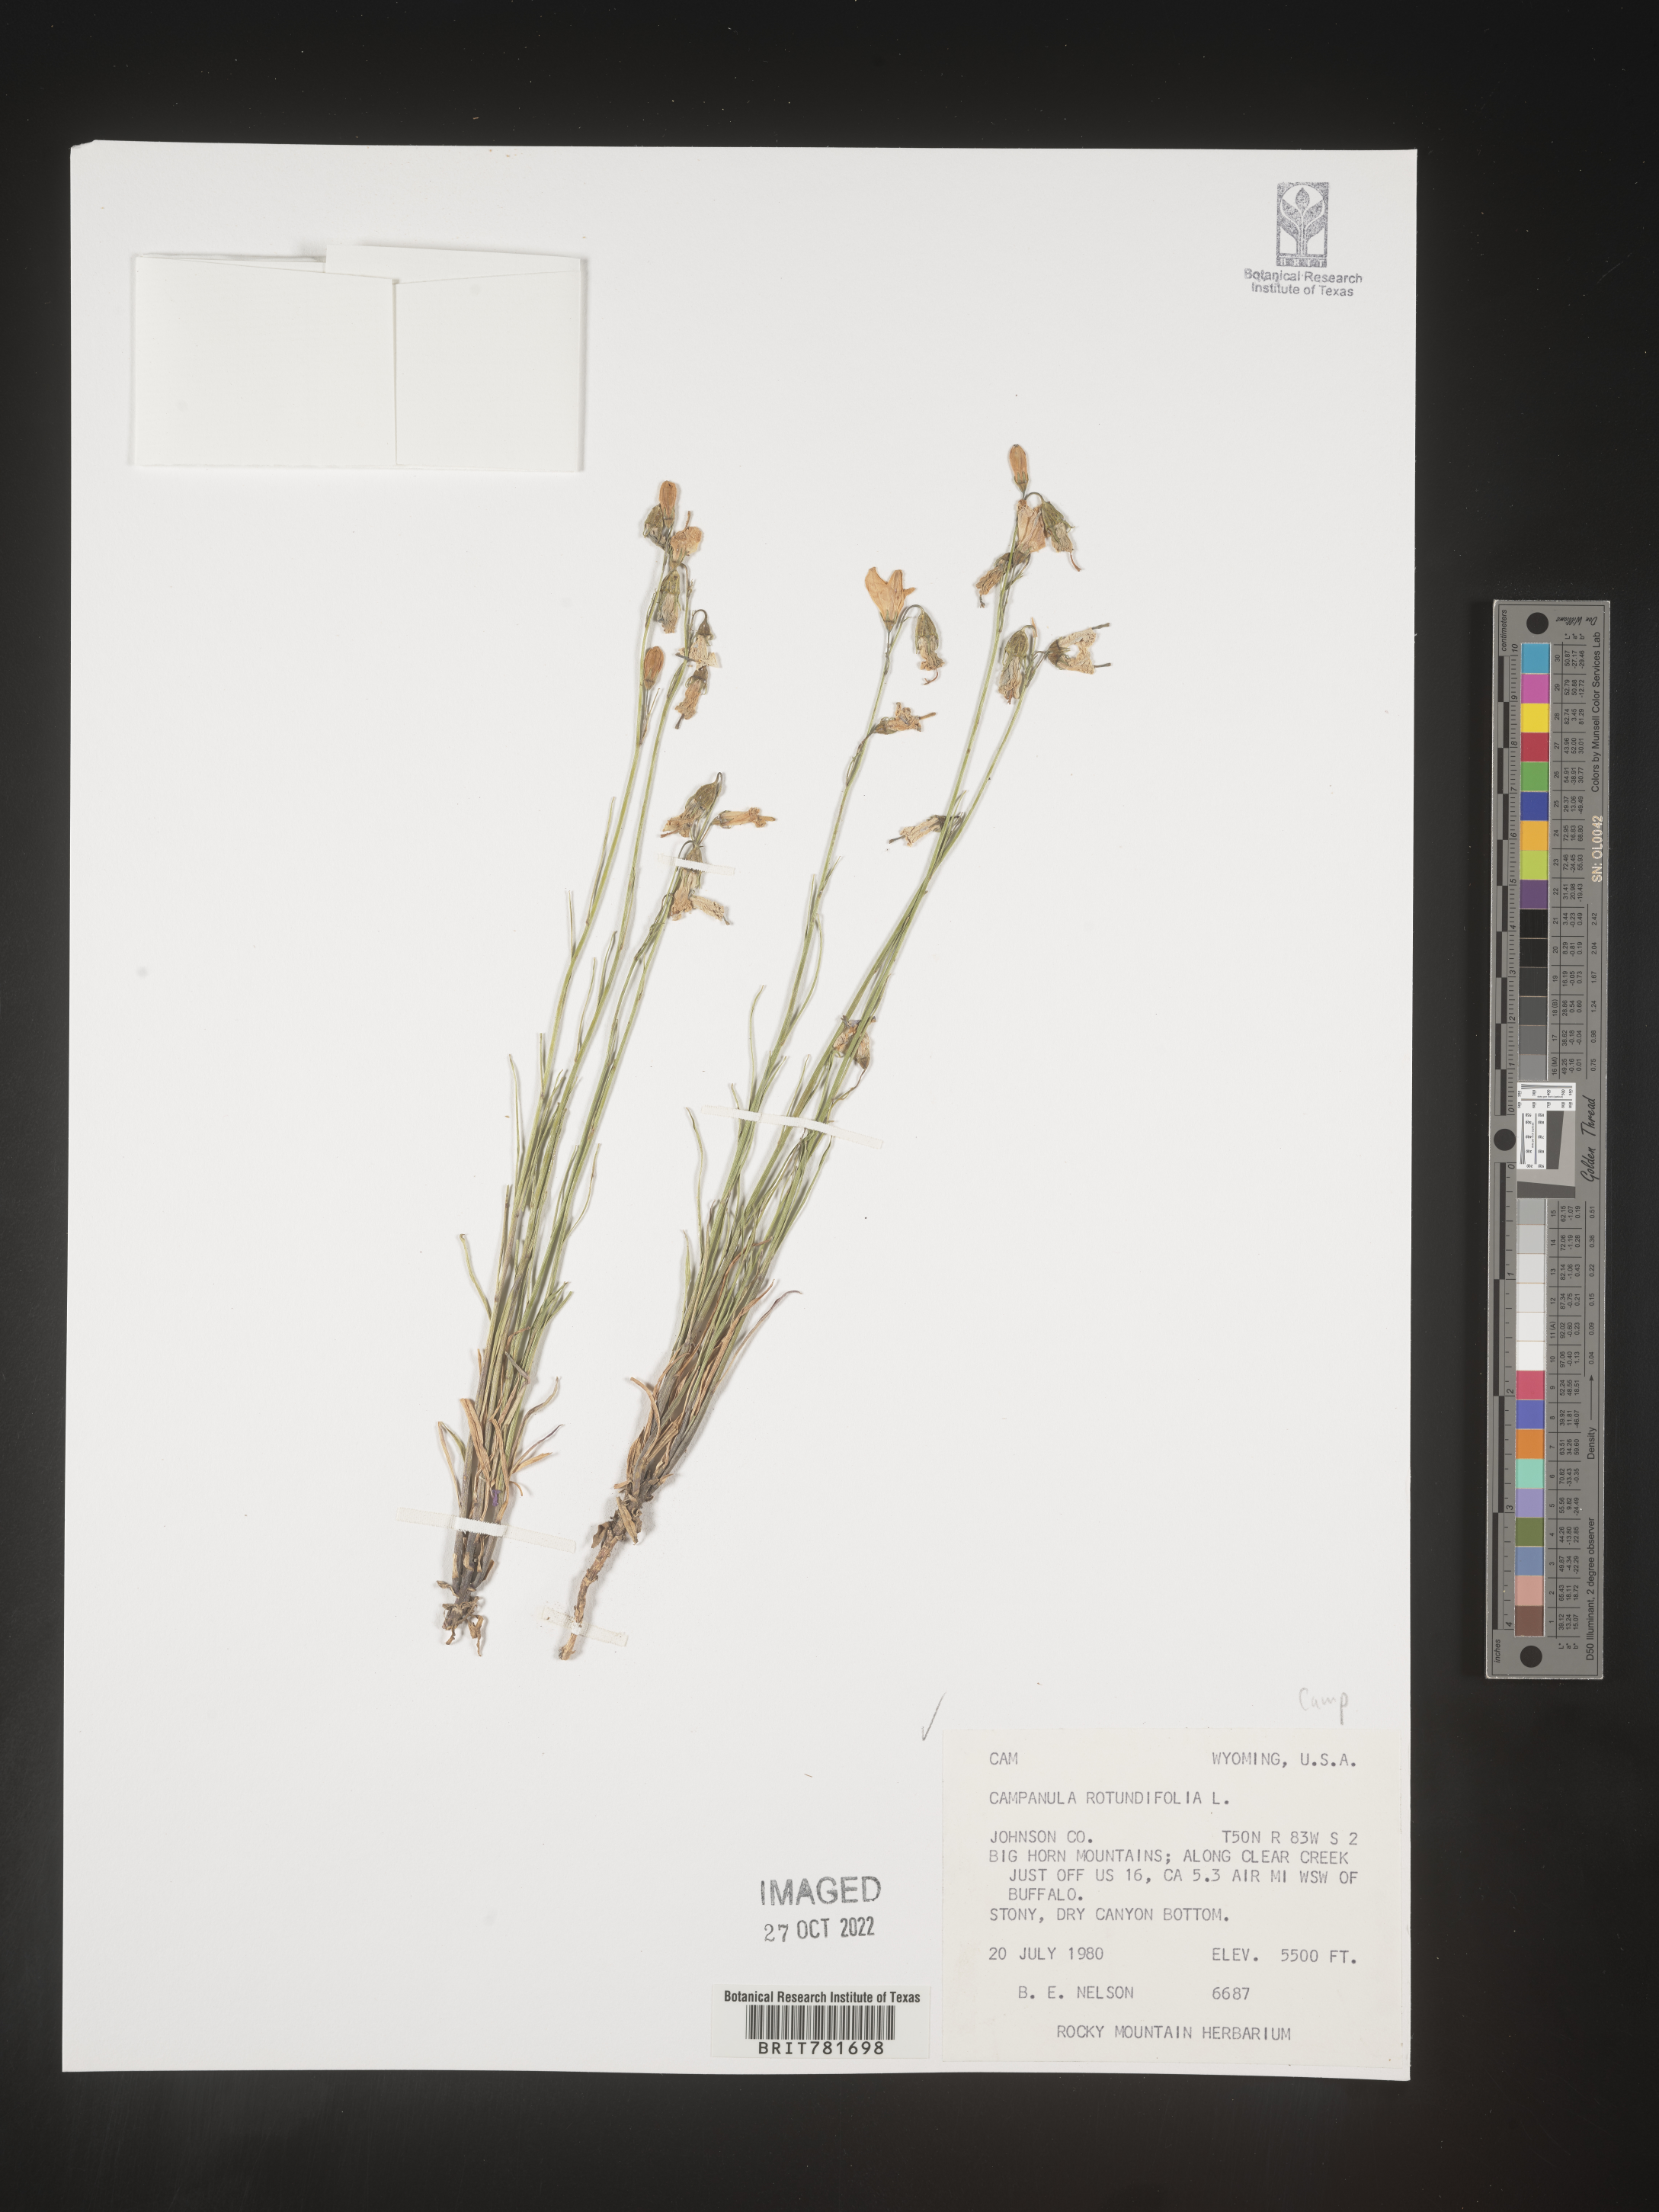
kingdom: Plantae
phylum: Tracheophyta
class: Magnoliopsida
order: Asterales
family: Campanulaceae
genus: Campanula
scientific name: Campanula rotundifolia
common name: Harebell
